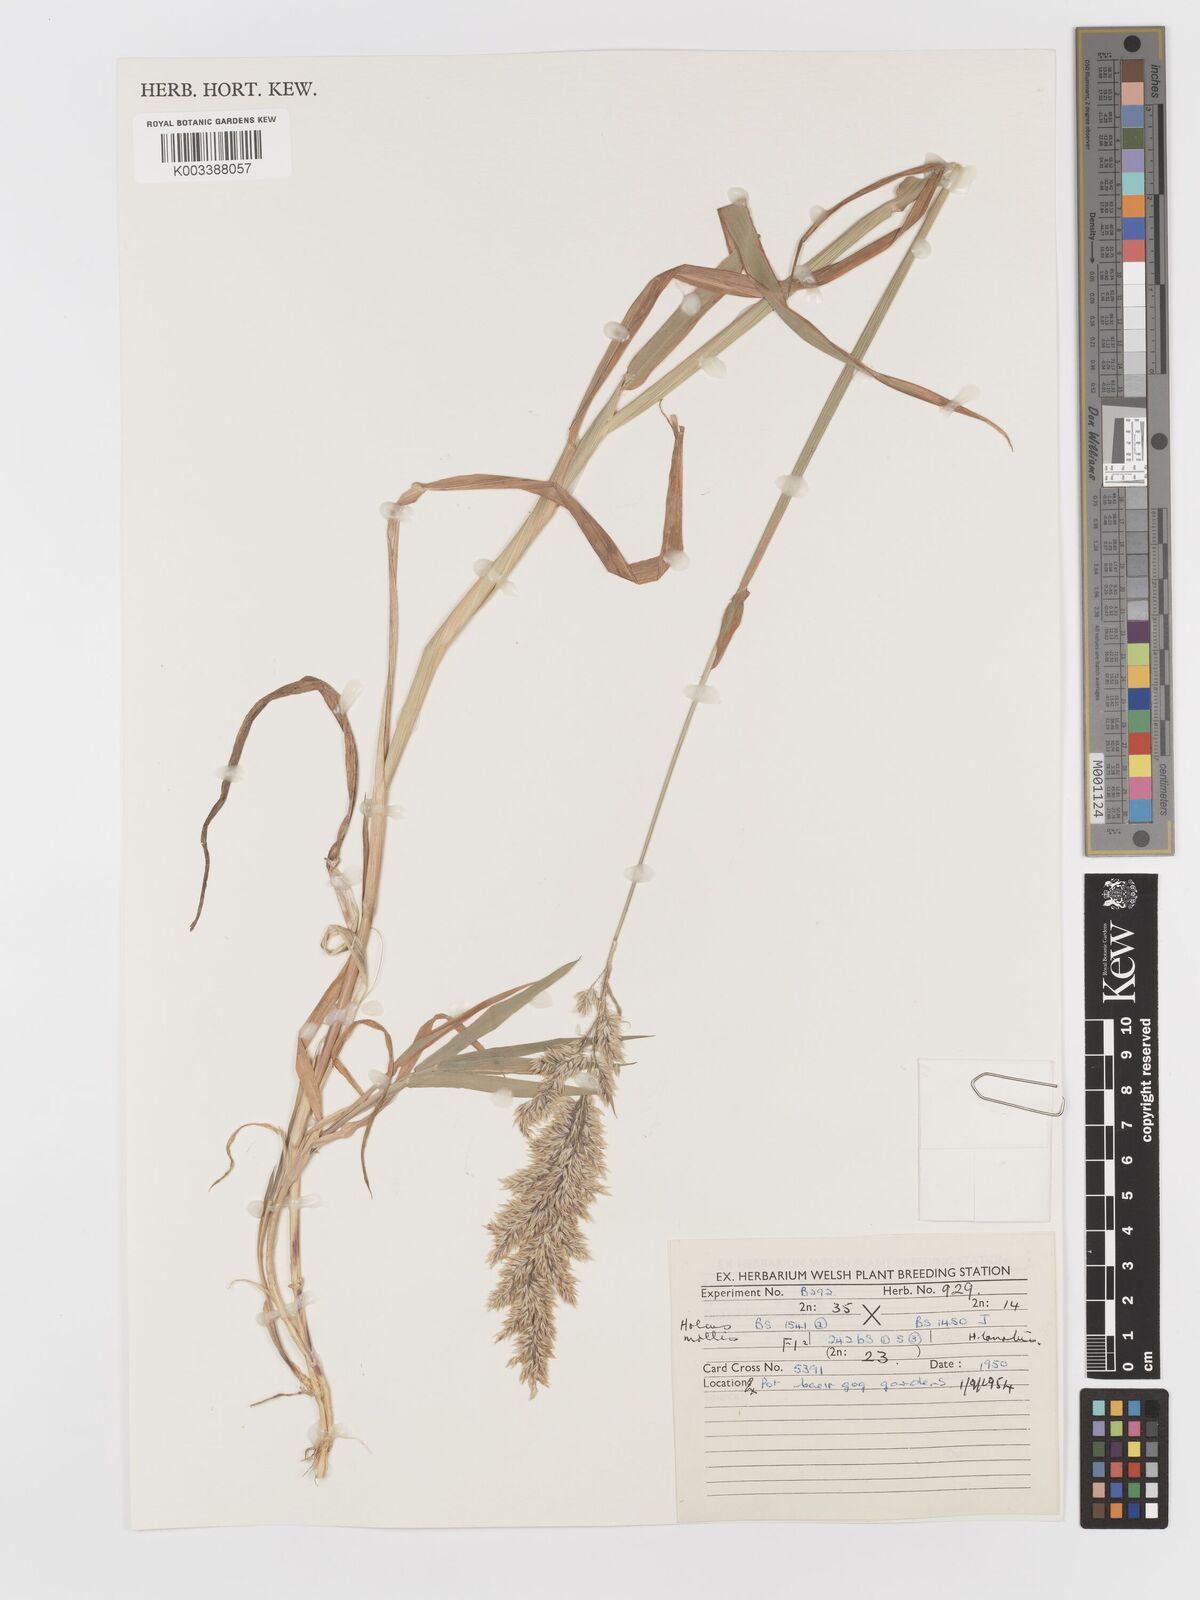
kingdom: Plantae
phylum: Tracheophyta
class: Liliopsida
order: Poales
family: Poaceae
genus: Holcus
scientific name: Holcus lanatus
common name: Yorkshire-fog
